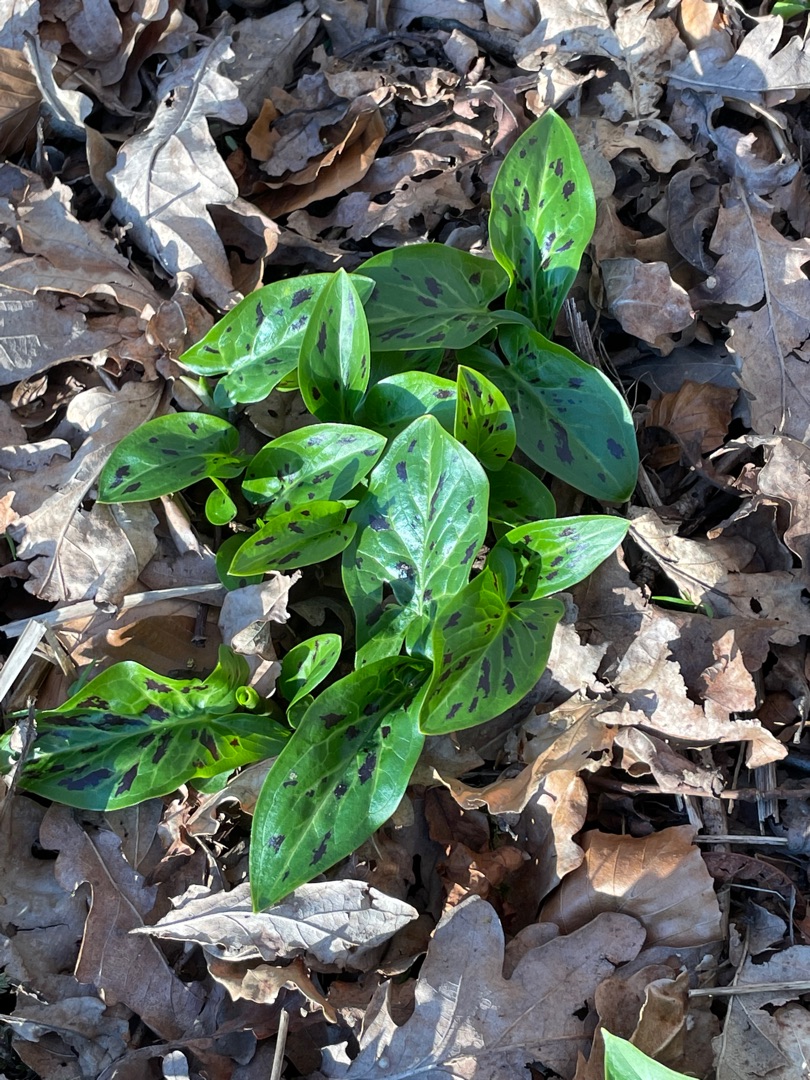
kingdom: Plantae
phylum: Tracheophyta
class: Liliopsida
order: Alismatales
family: Araceae
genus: Arum
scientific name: Arum maculatum
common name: Plettet arum
